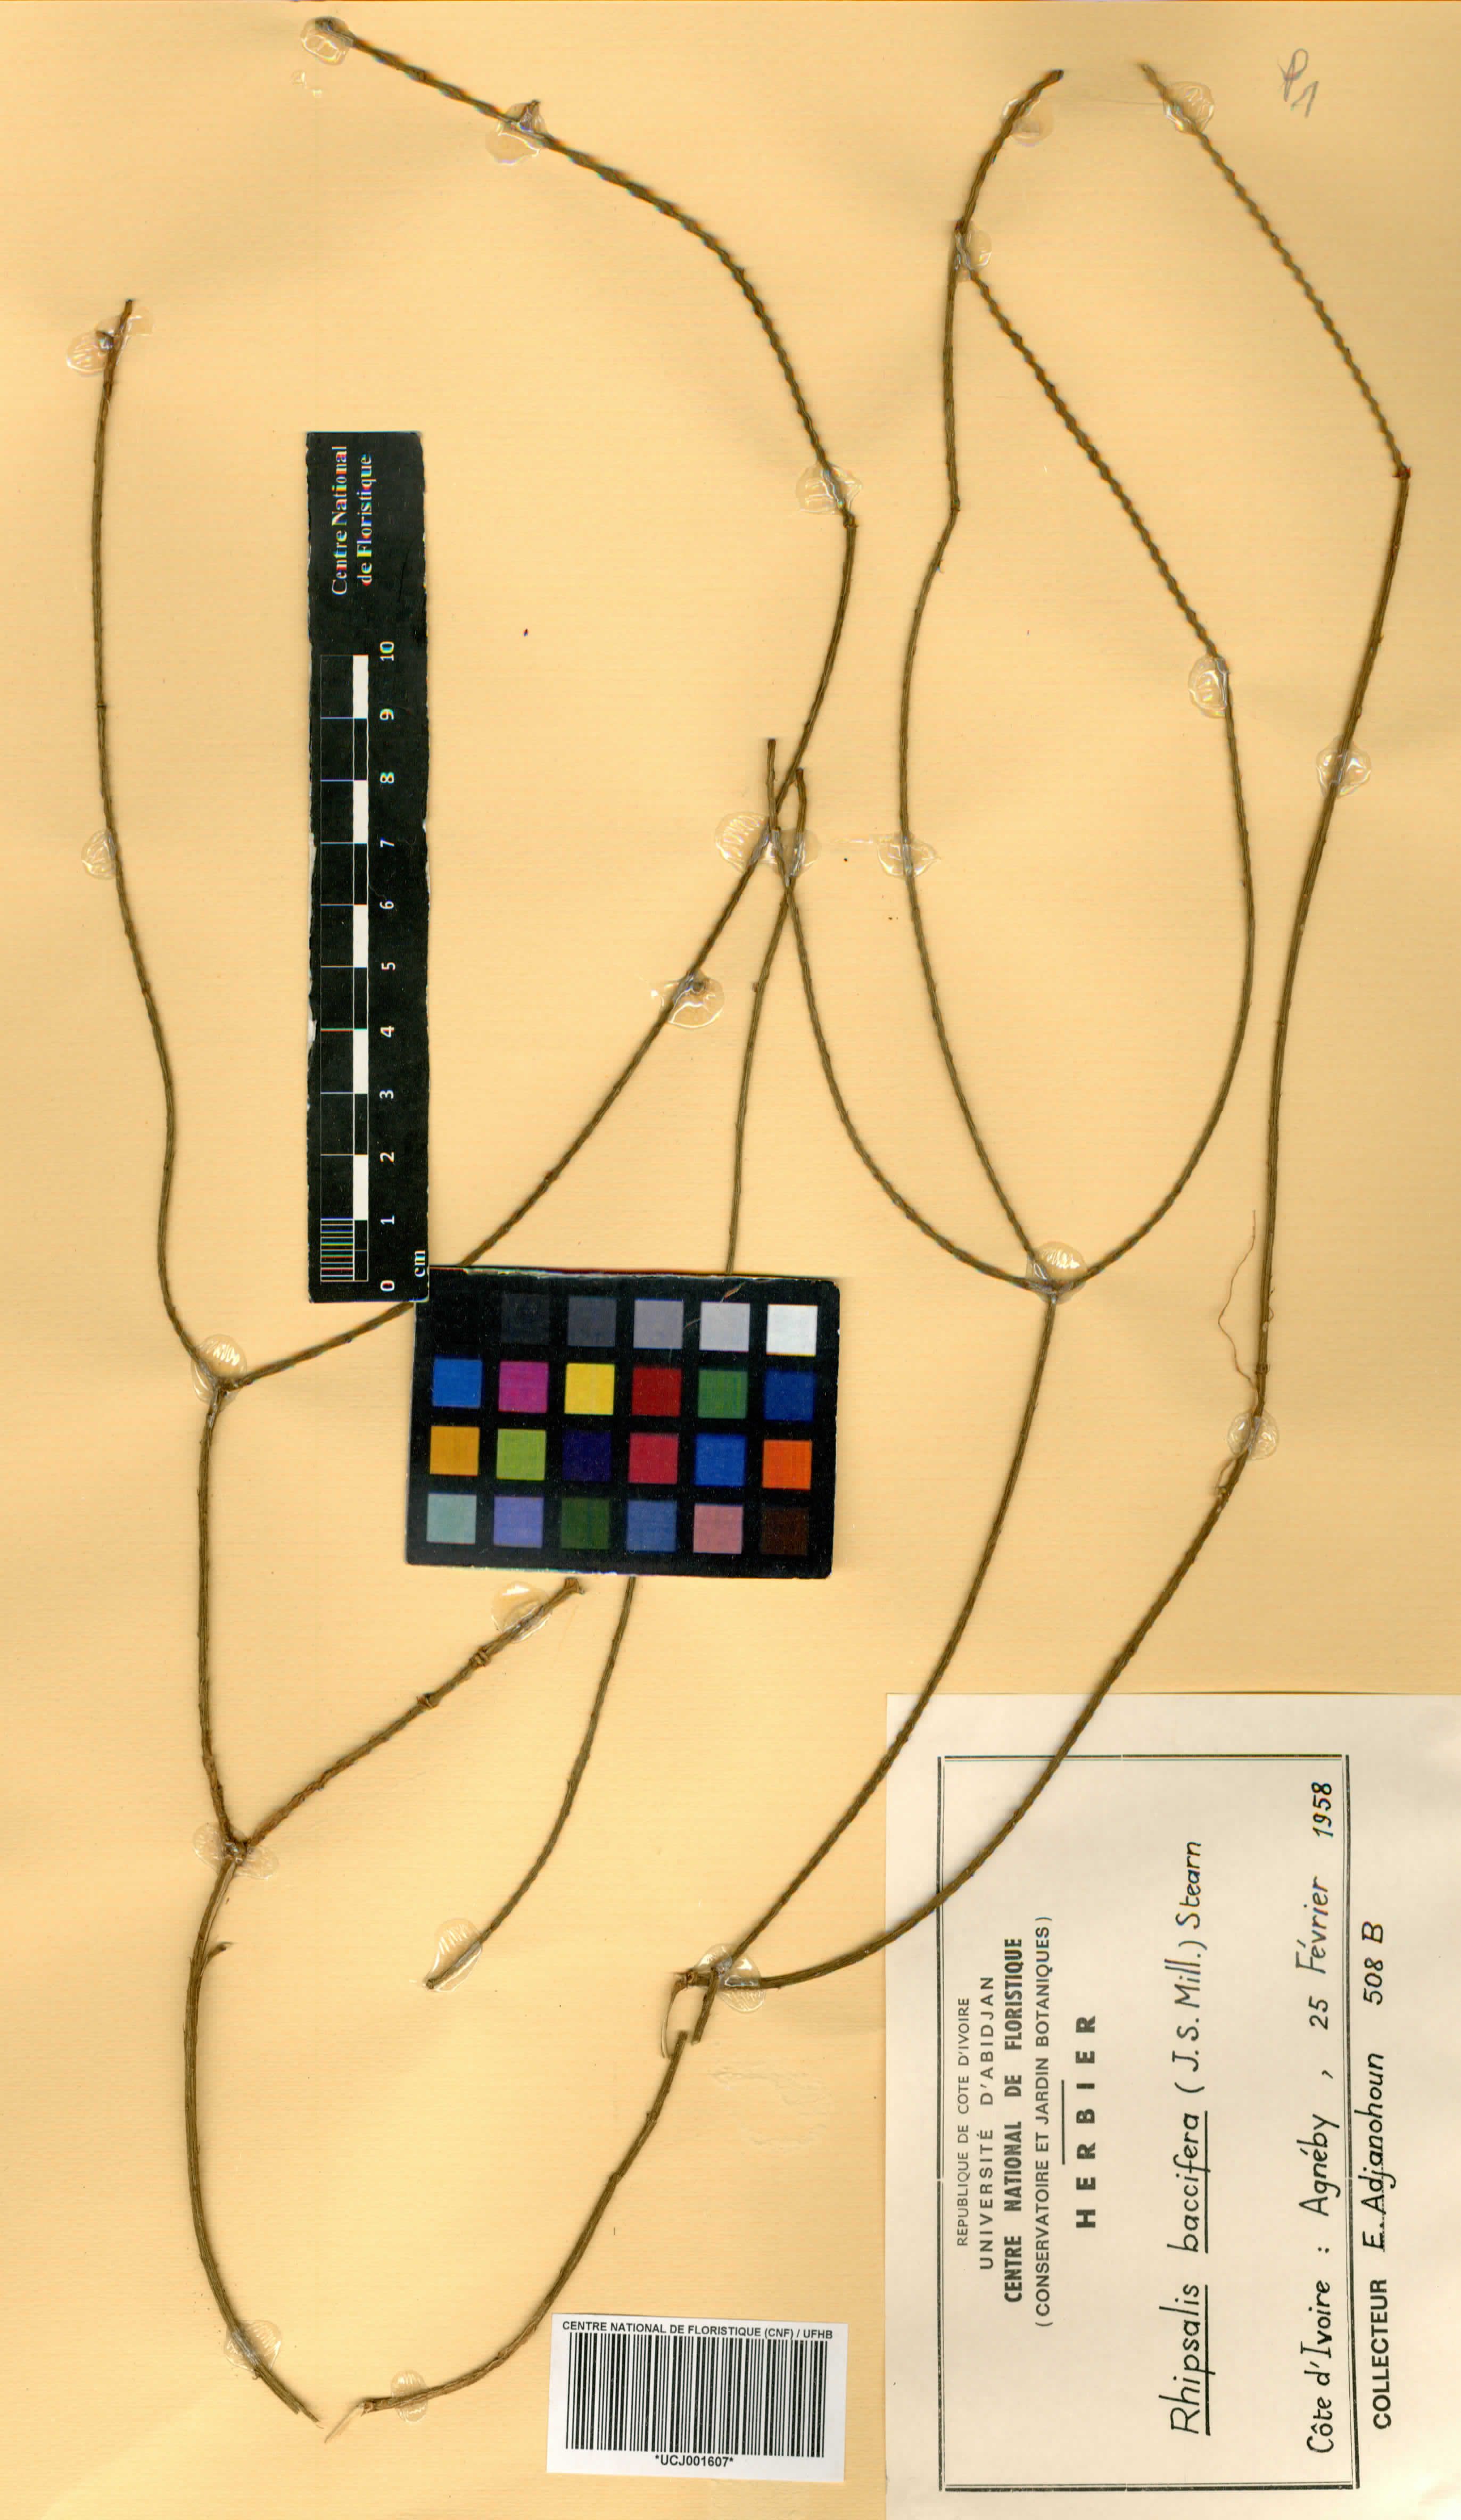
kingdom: Plantae
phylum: Tracheophyta
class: Magnoliopsida
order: Caryophyllales
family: Cactaceae
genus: Rhipsalis
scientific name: Rhipsalis baccifera
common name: Mistletoe cactus
